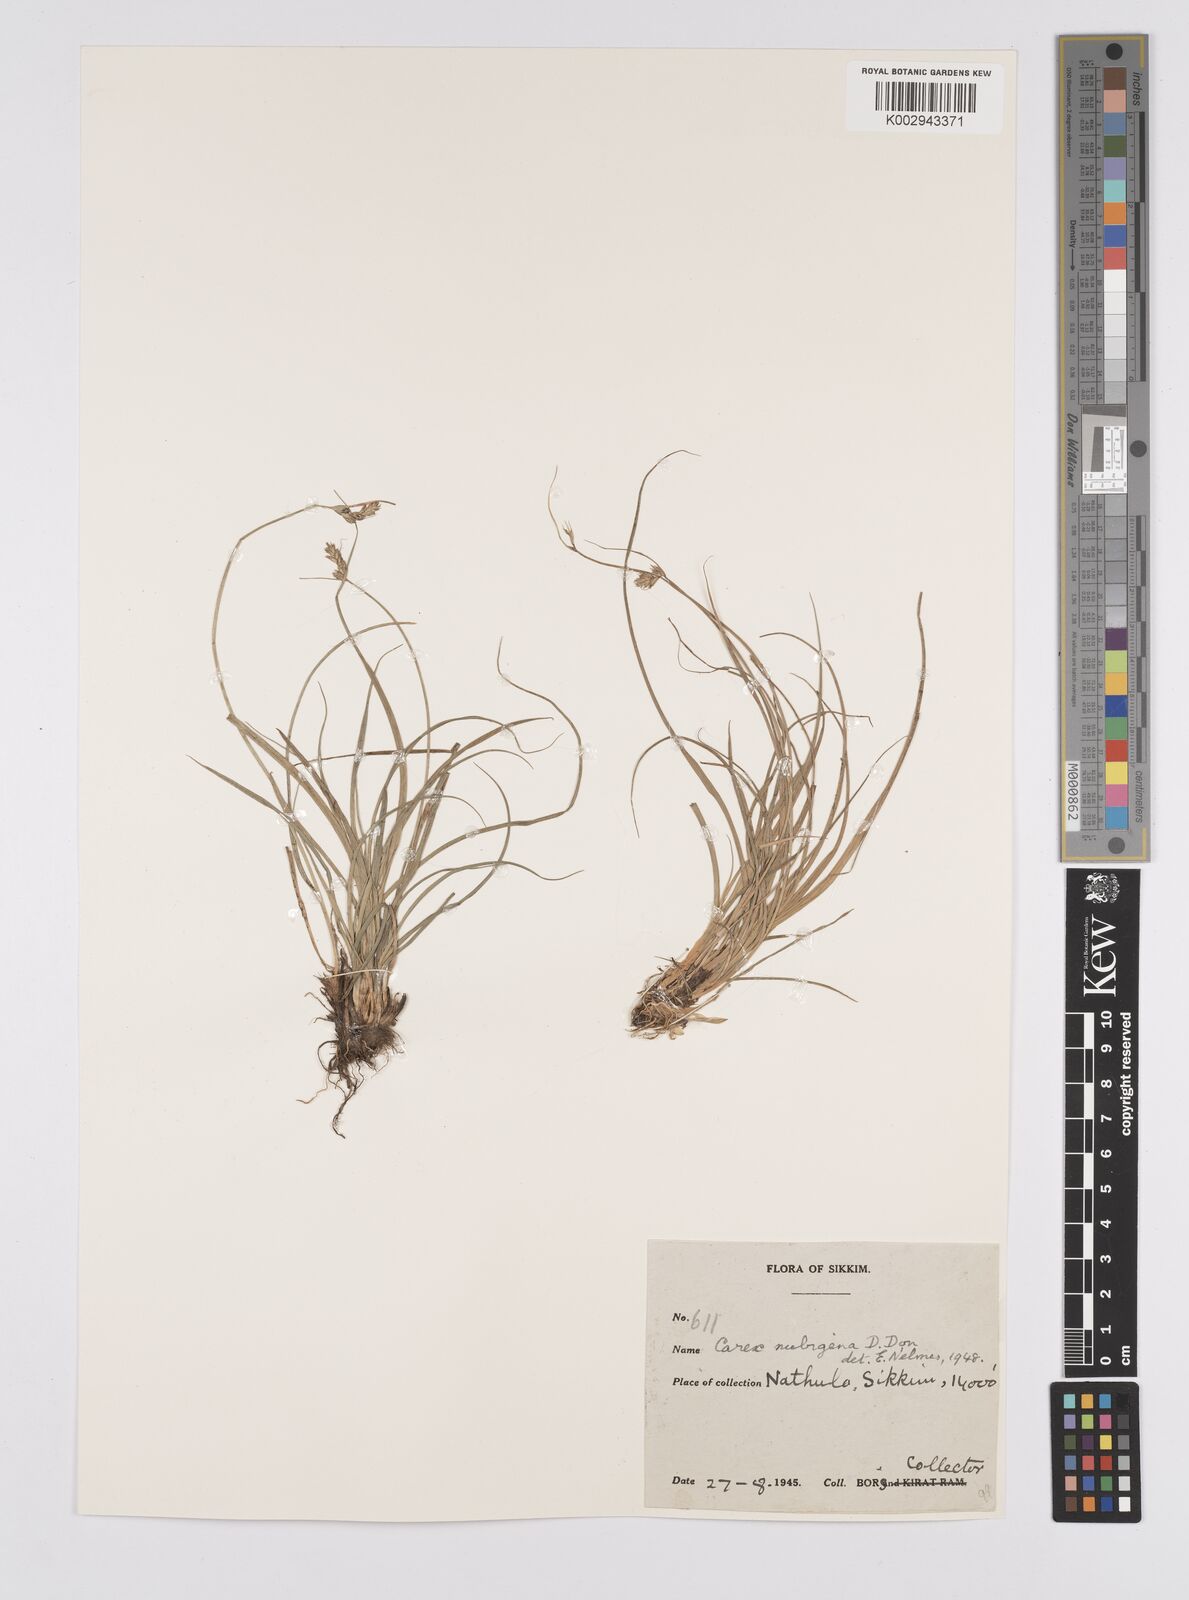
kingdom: Plantae
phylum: Tracheophyta
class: Liliopsida
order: Poales
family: Cyperaceae
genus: Carex
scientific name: Carex nubigena
